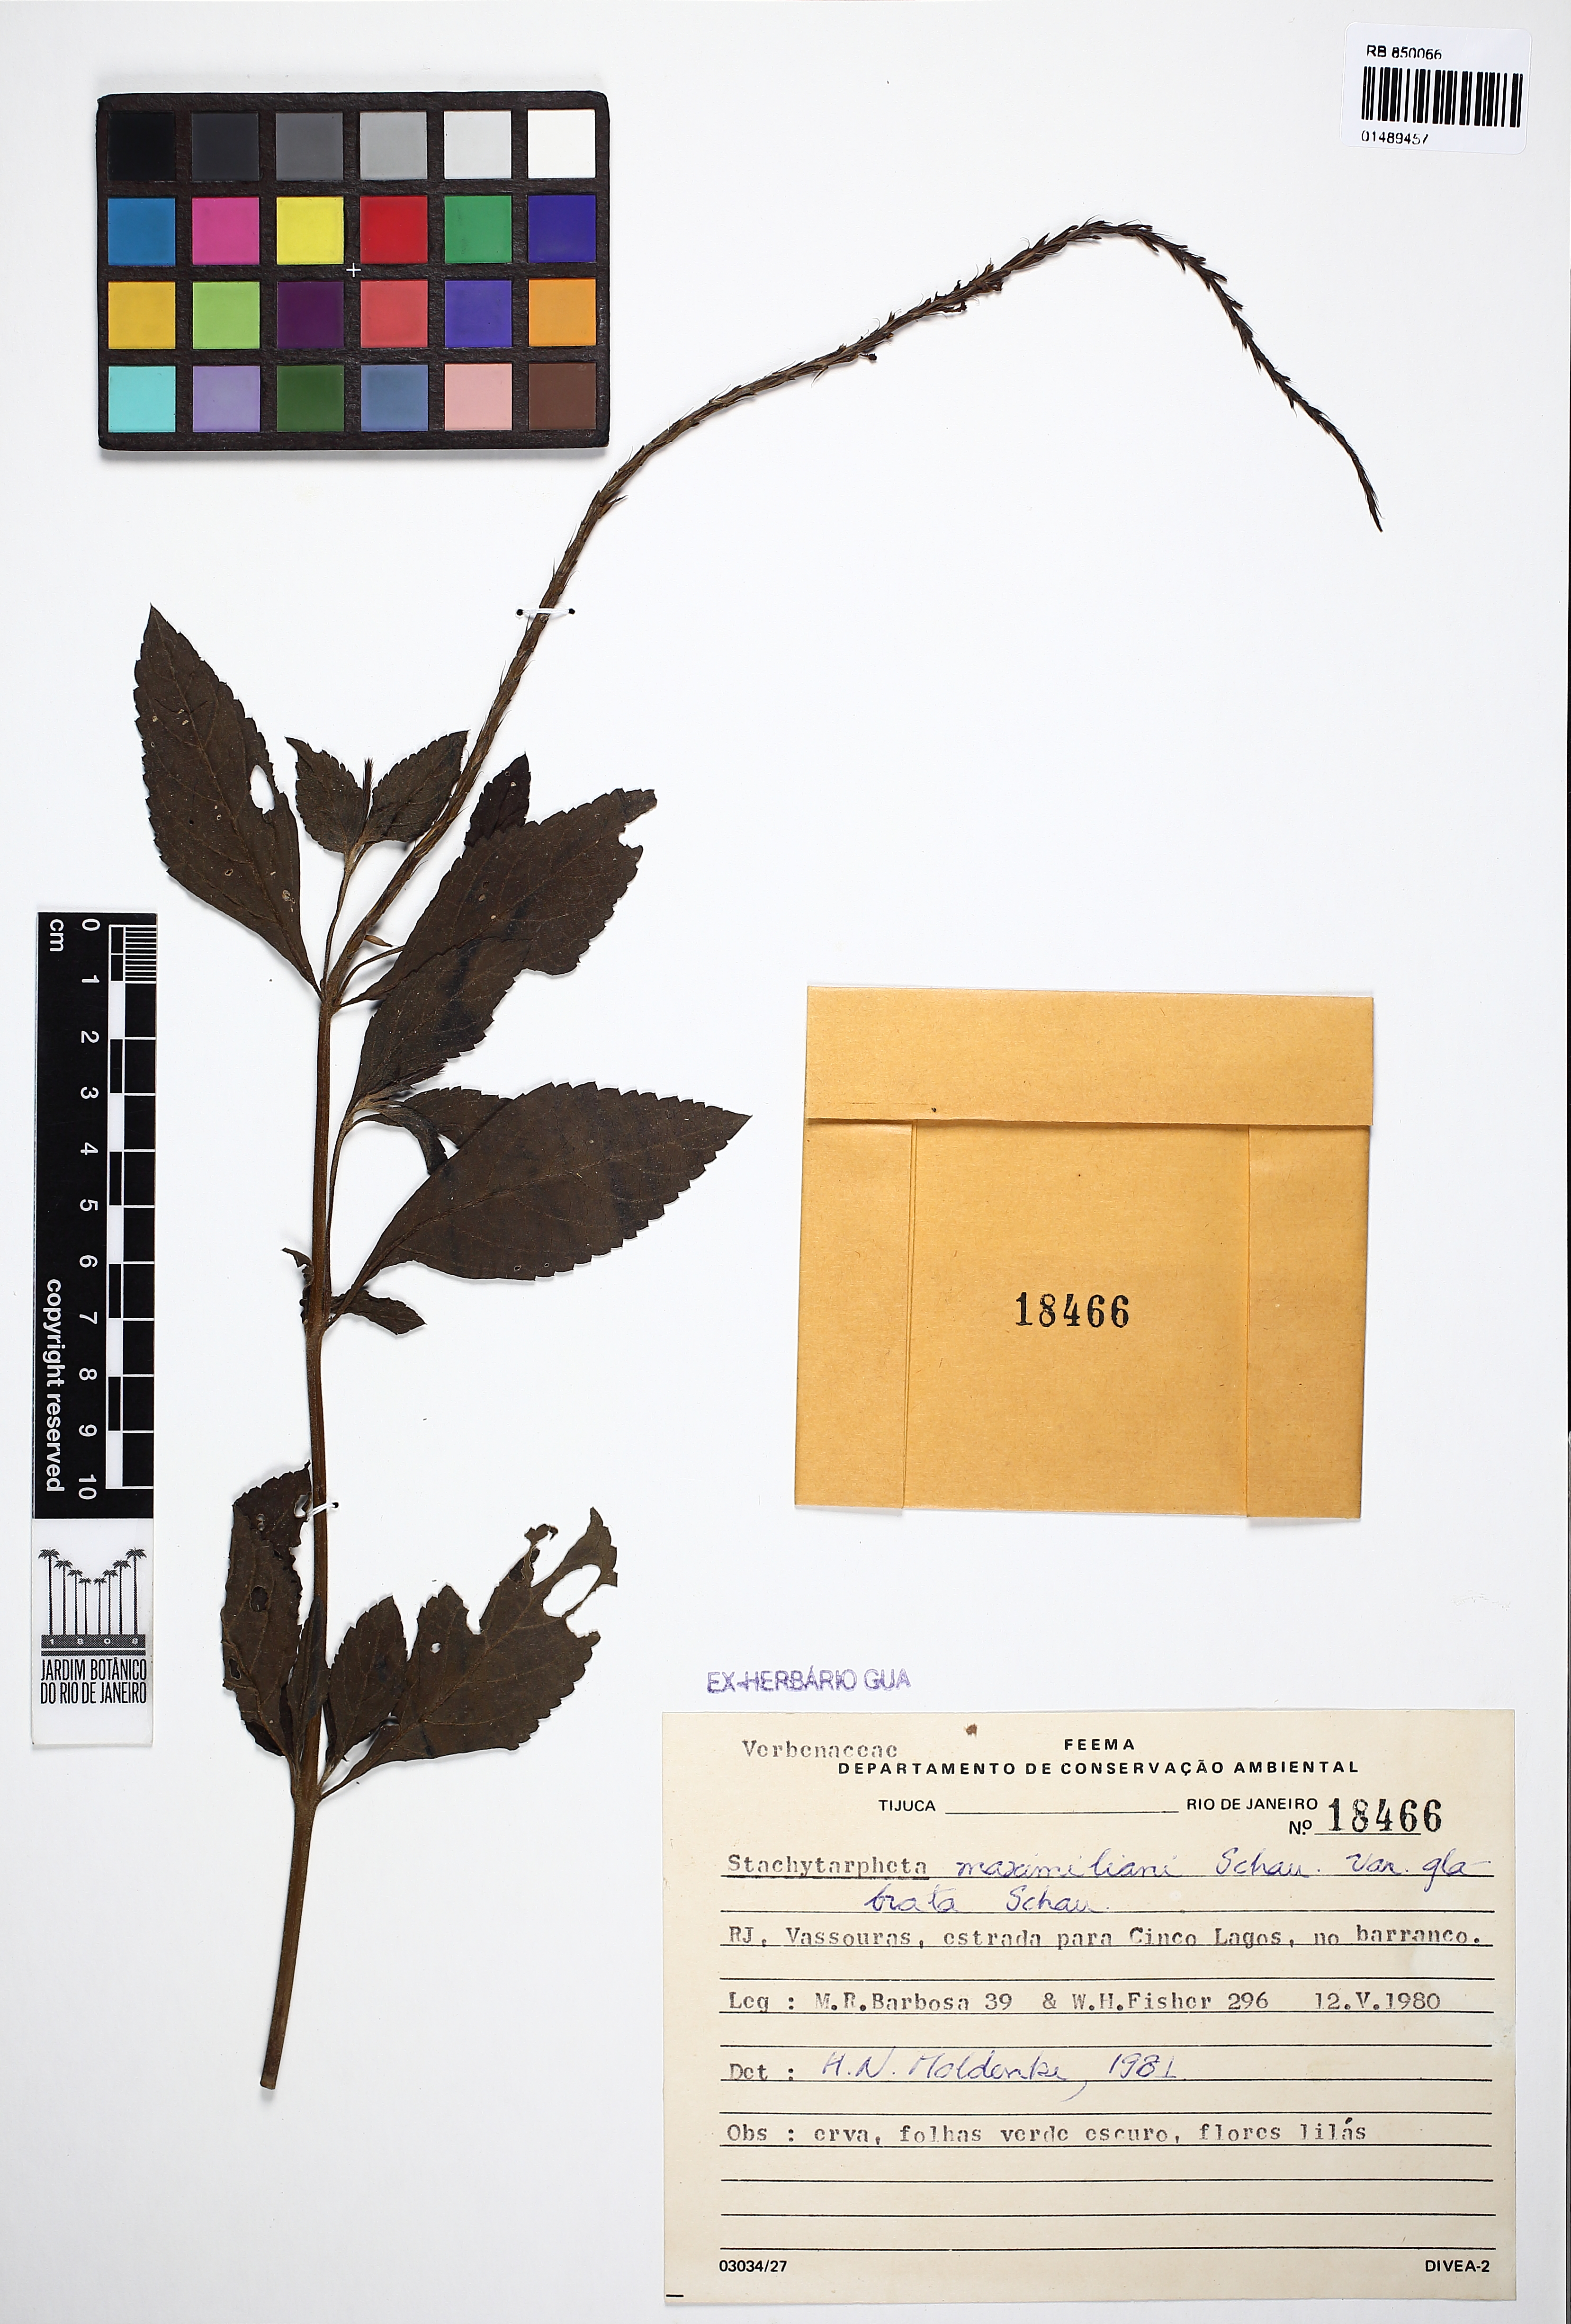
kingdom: Plantae
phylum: Tracheophyta
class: Magnoliopsida
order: Lamiales
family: Verbenaceae
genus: Stachytarpheta
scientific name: Stachytarpheta maximiliani
